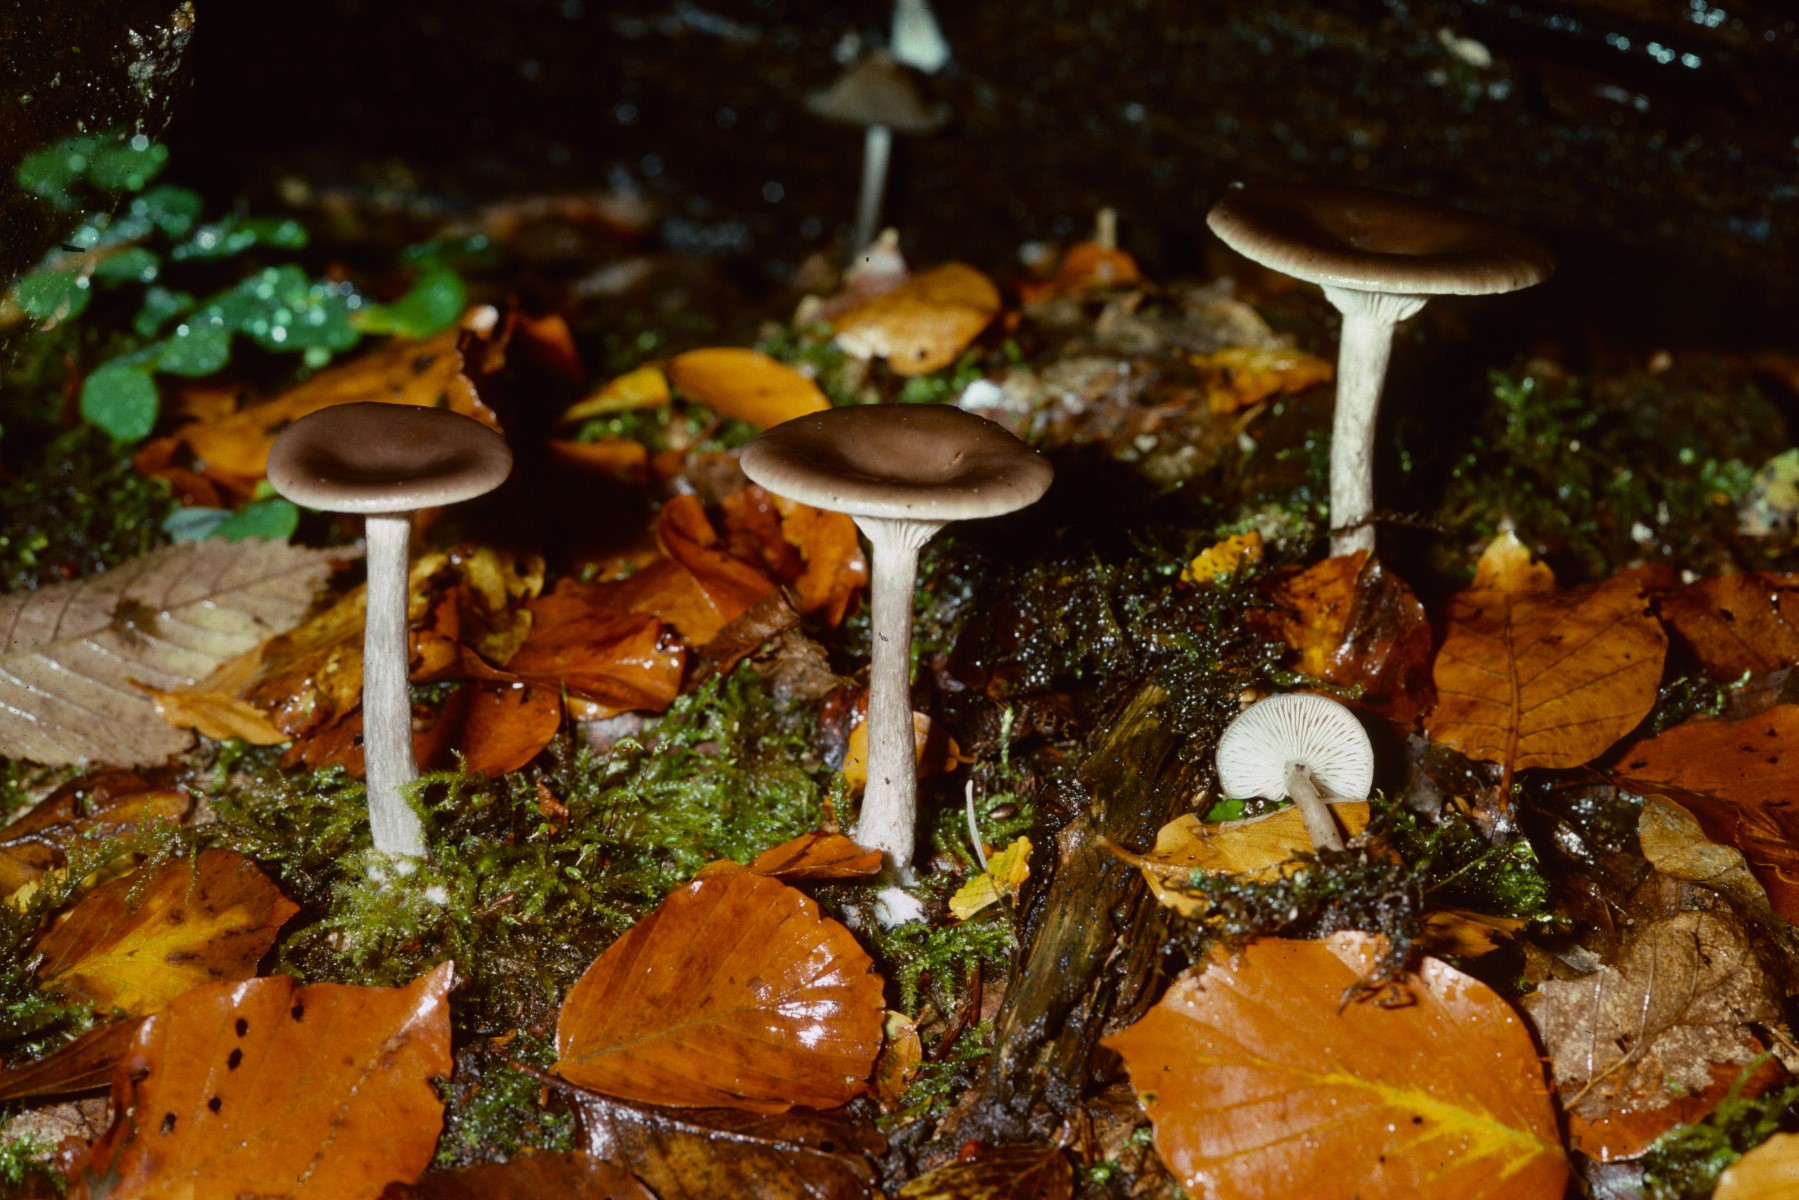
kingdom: Fungi
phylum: Basidiomycota
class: Agaricomycetes
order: Agaricales
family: Pseudoclitocybaceae
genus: Pseudoclitocybe
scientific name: Pseudoclitocybe cyathiformis
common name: almindelig bægertragthat
